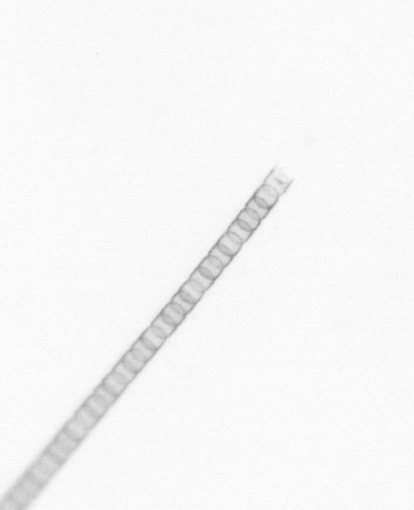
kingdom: Chromista
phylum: Ochrophyta
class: Bacillariophyceae
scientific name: Bacillariophyceae
